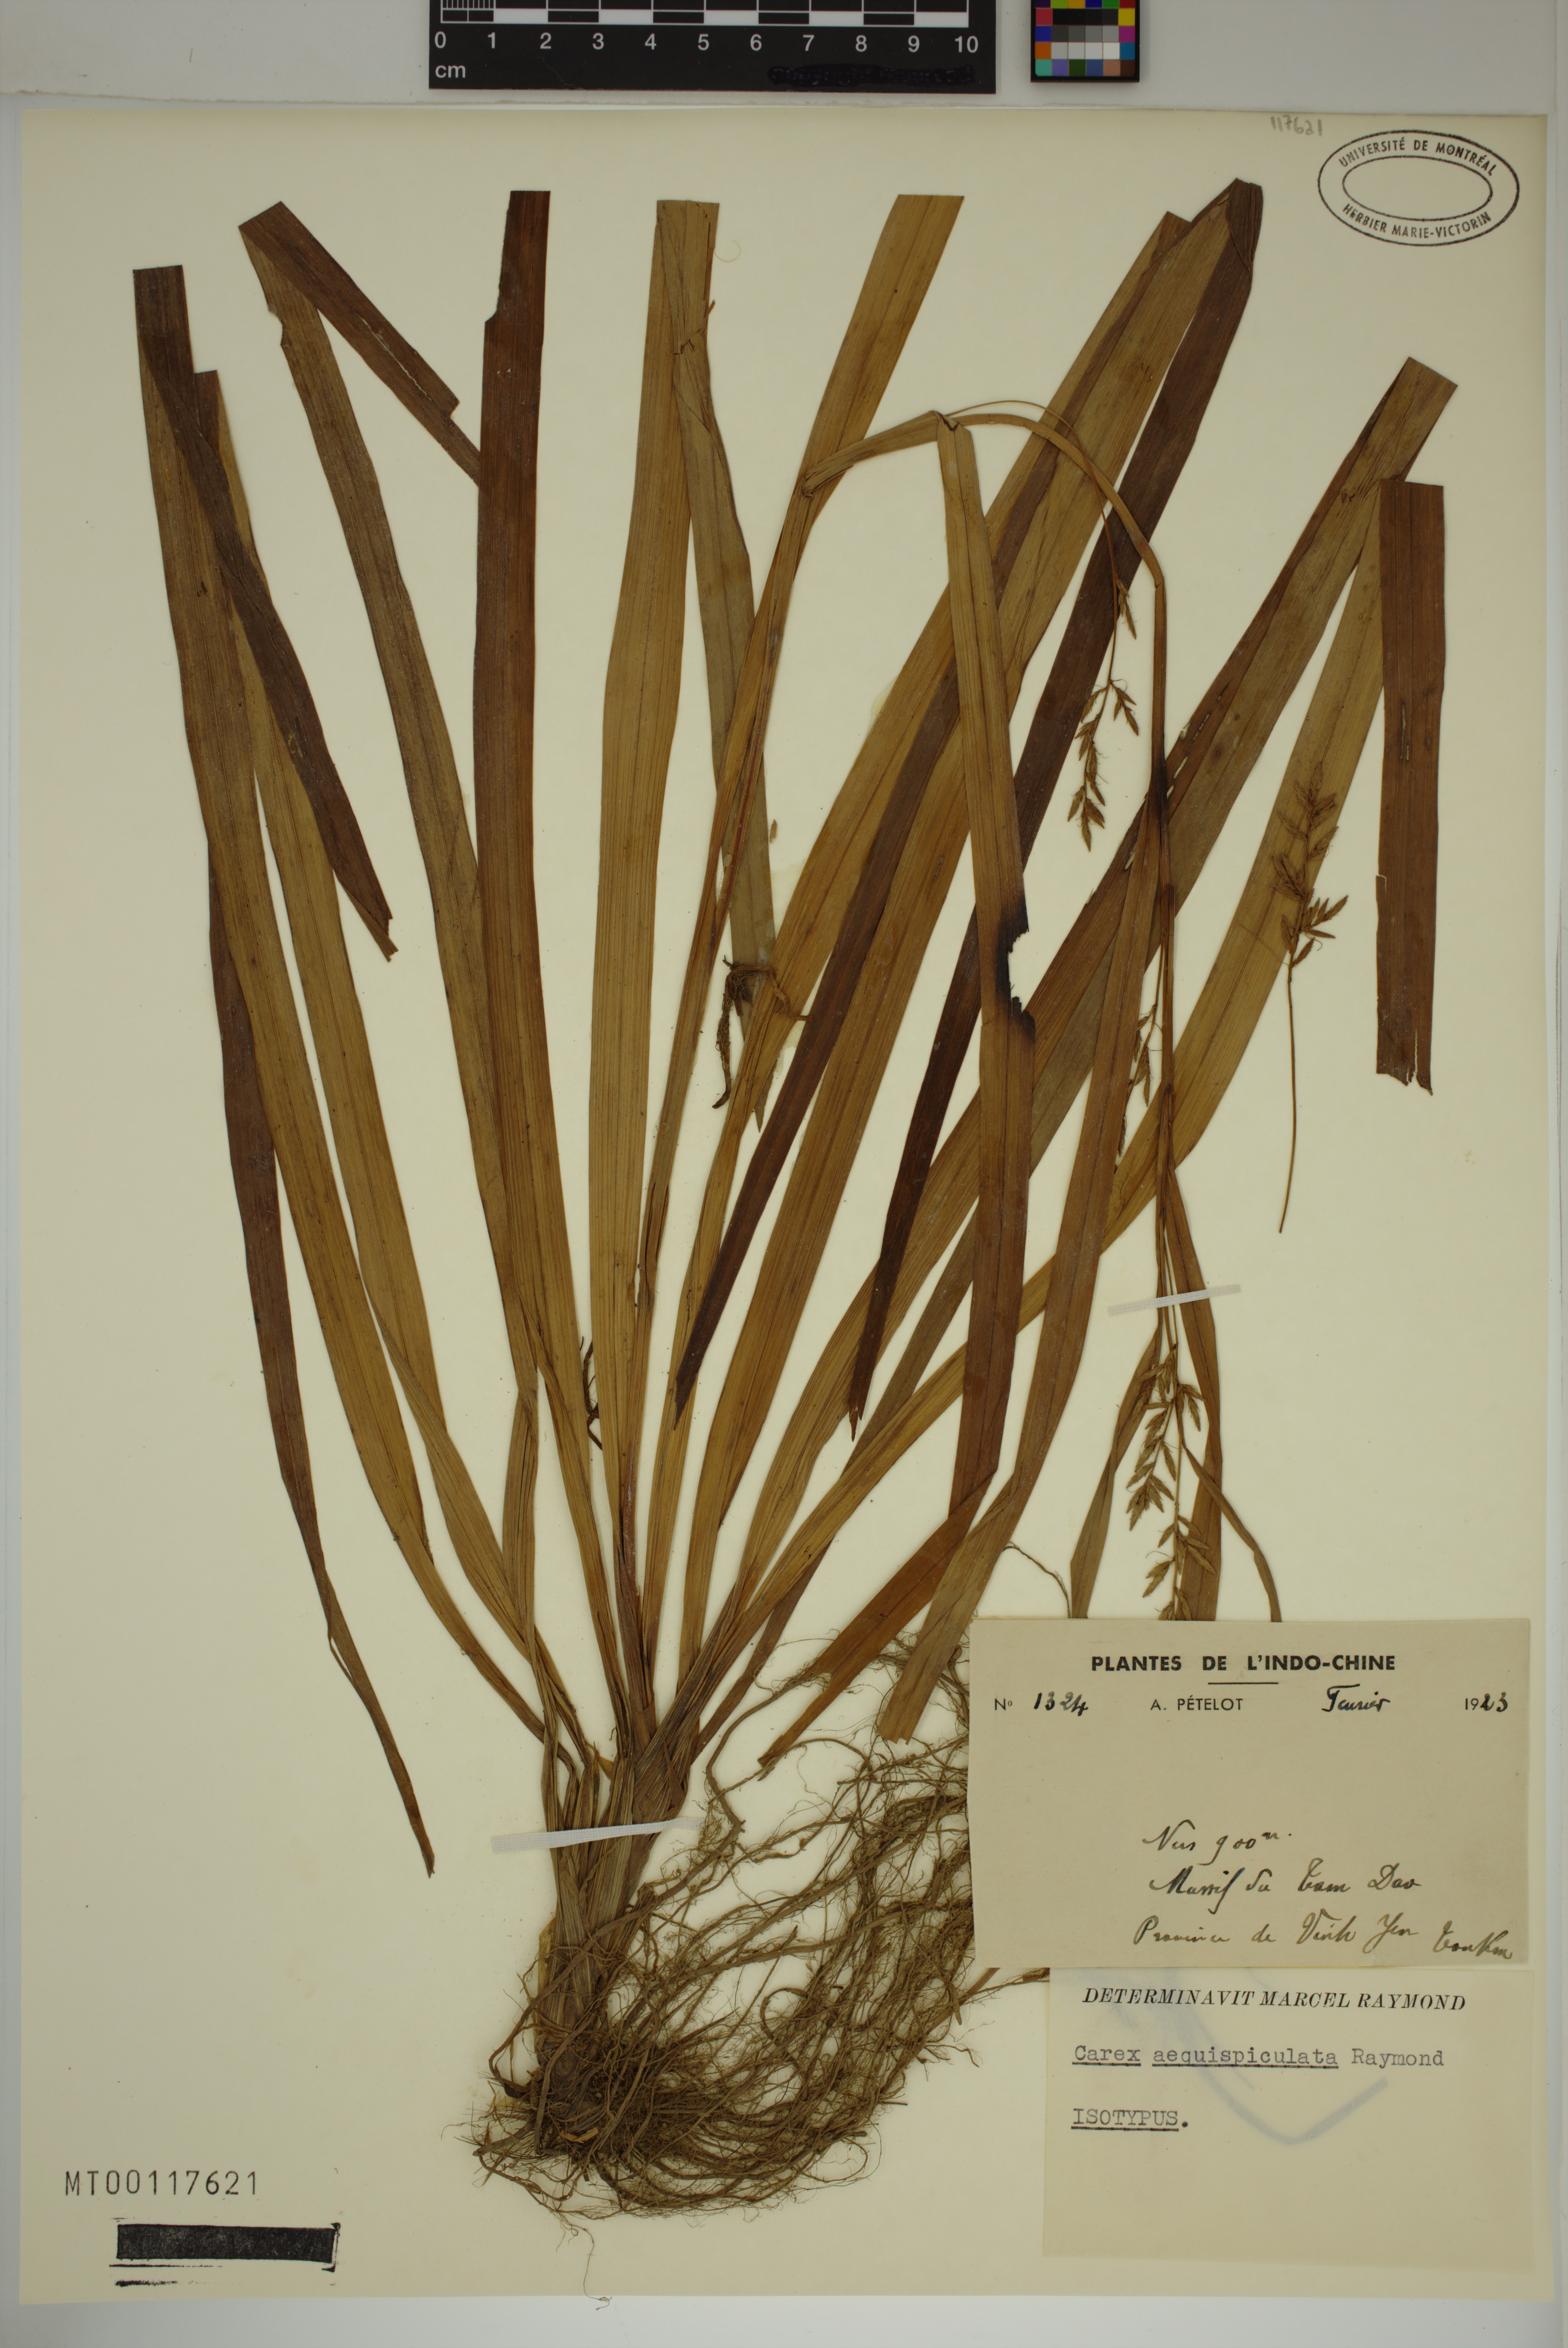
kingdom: Plantae
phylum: Tracheophyta
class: Liliopsida
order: Poales
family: Cyperaceae
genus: Carex
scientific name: Carex
